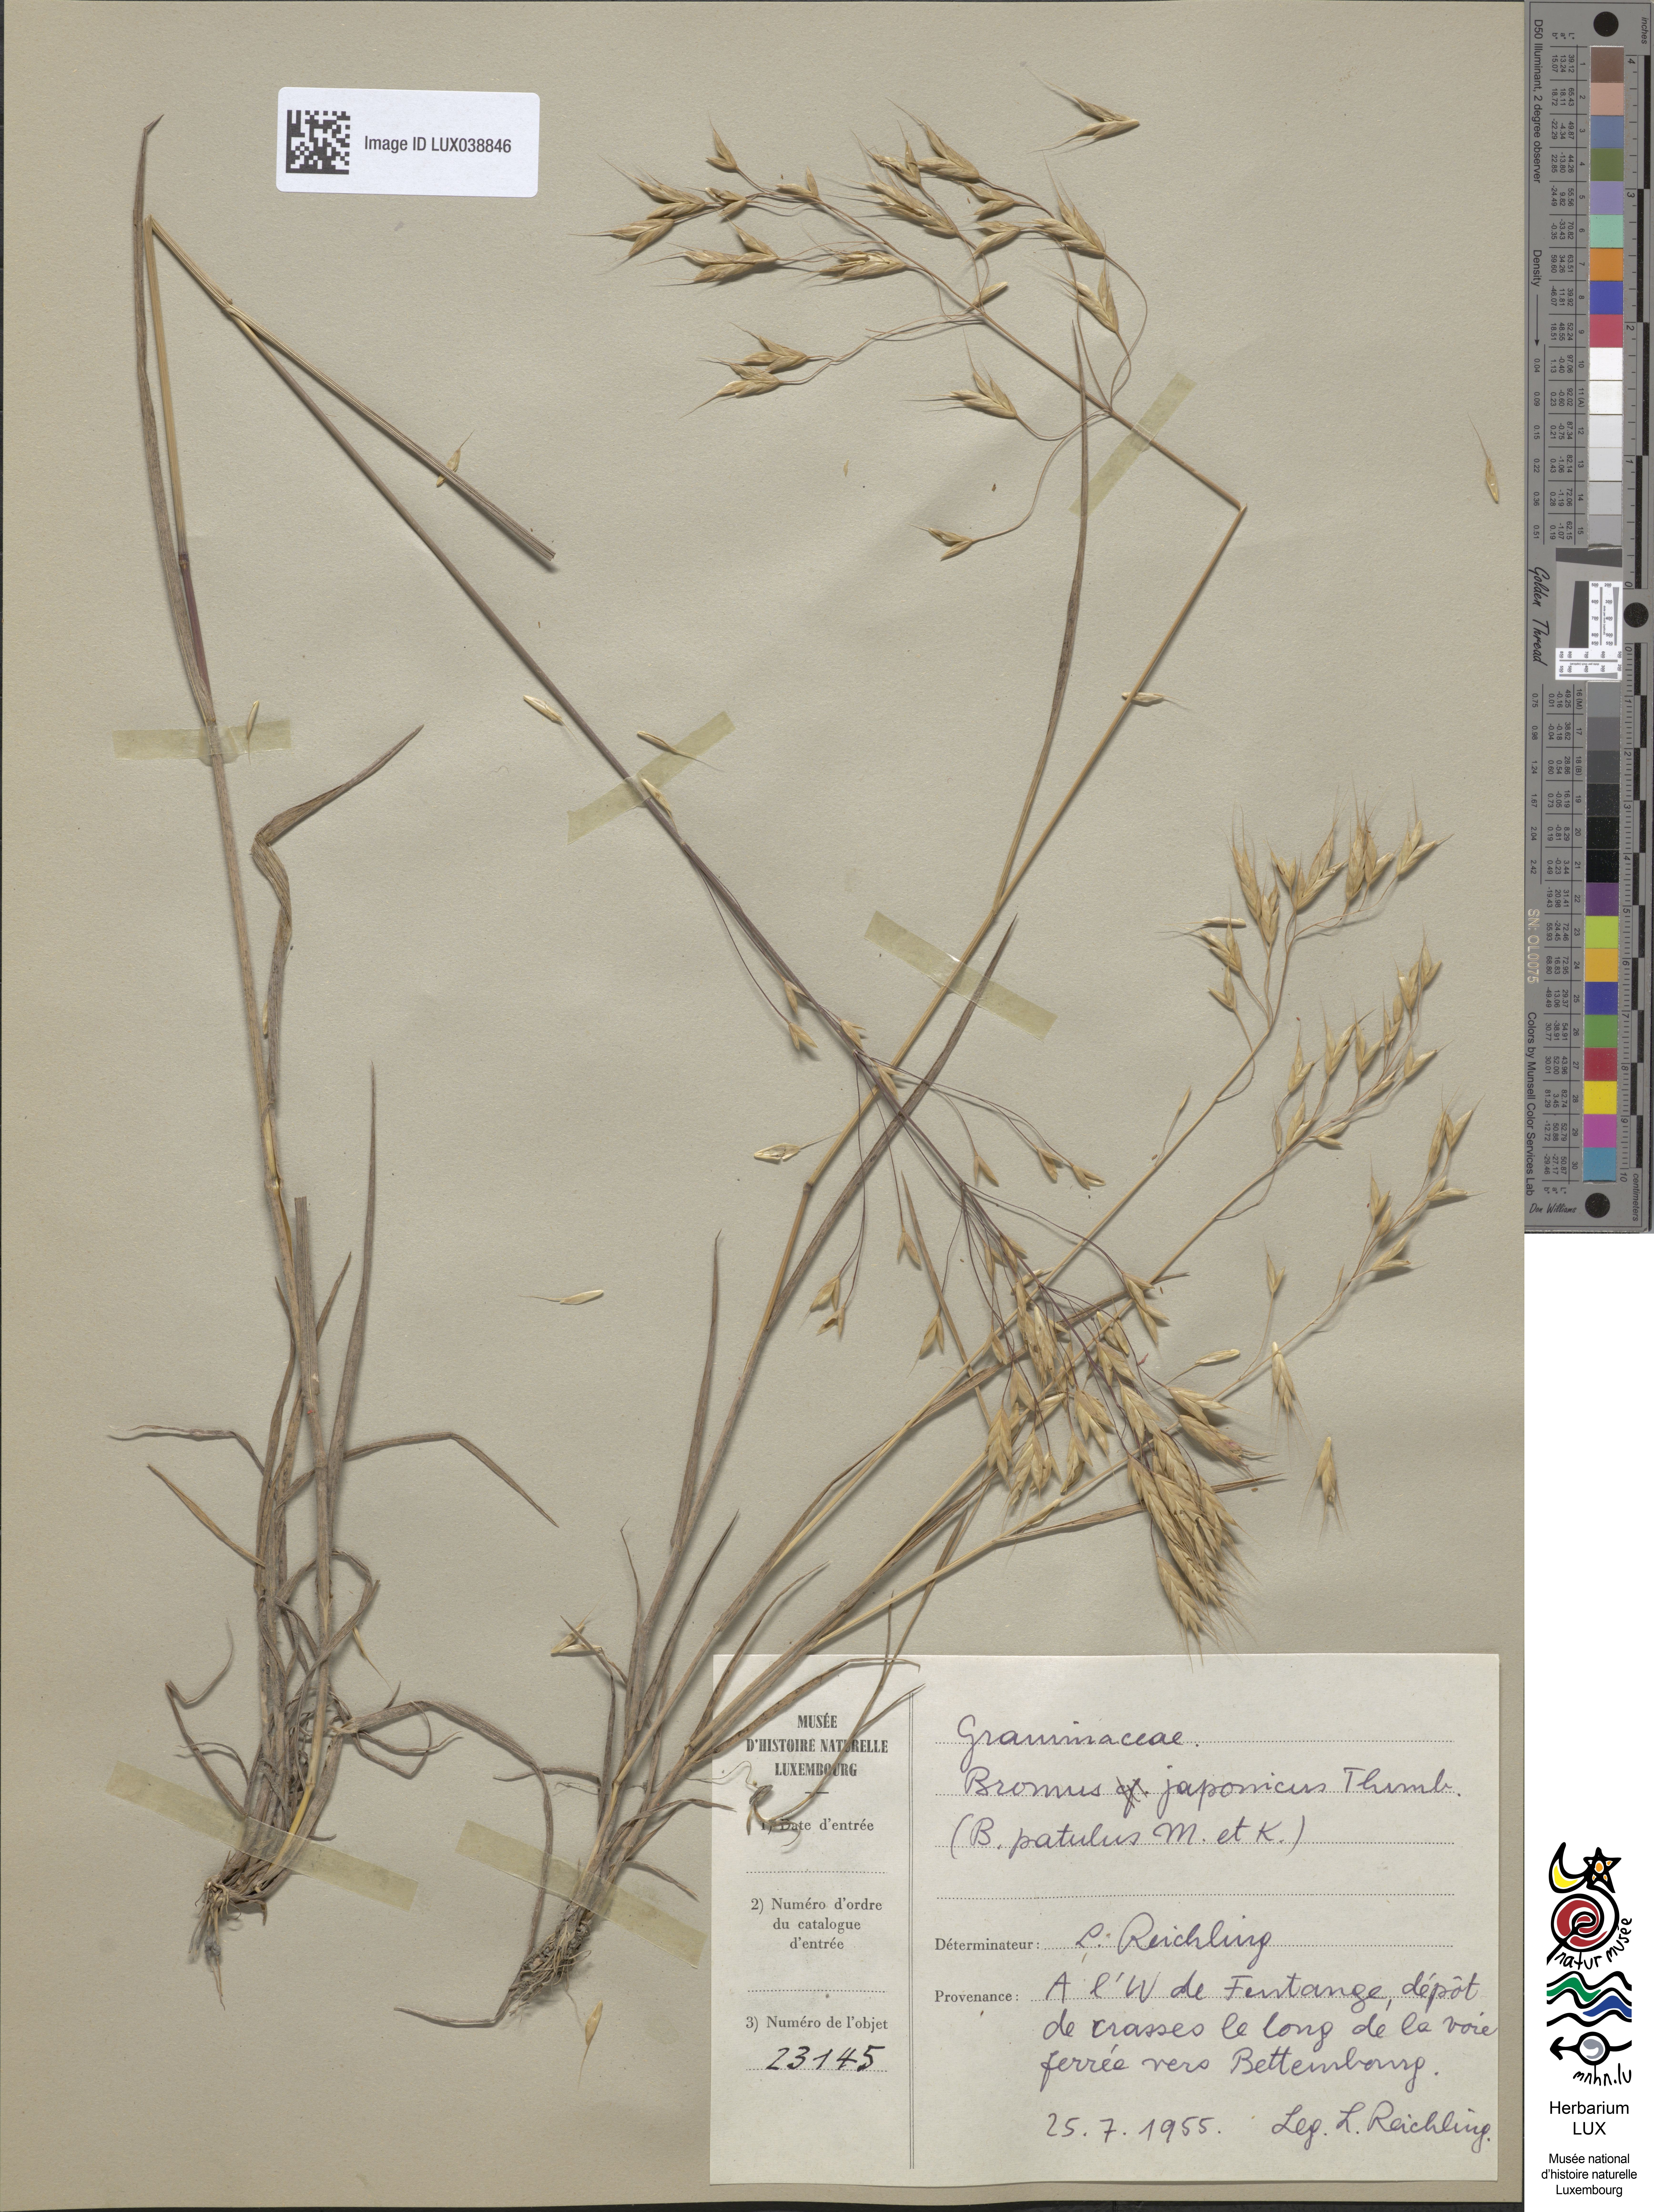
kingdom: Plantae
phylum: Tracheophyta
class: Liliopsida
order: Poales
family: Poaceae
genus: Bromus
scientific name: Bromus japonicus
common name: Japanese brome
